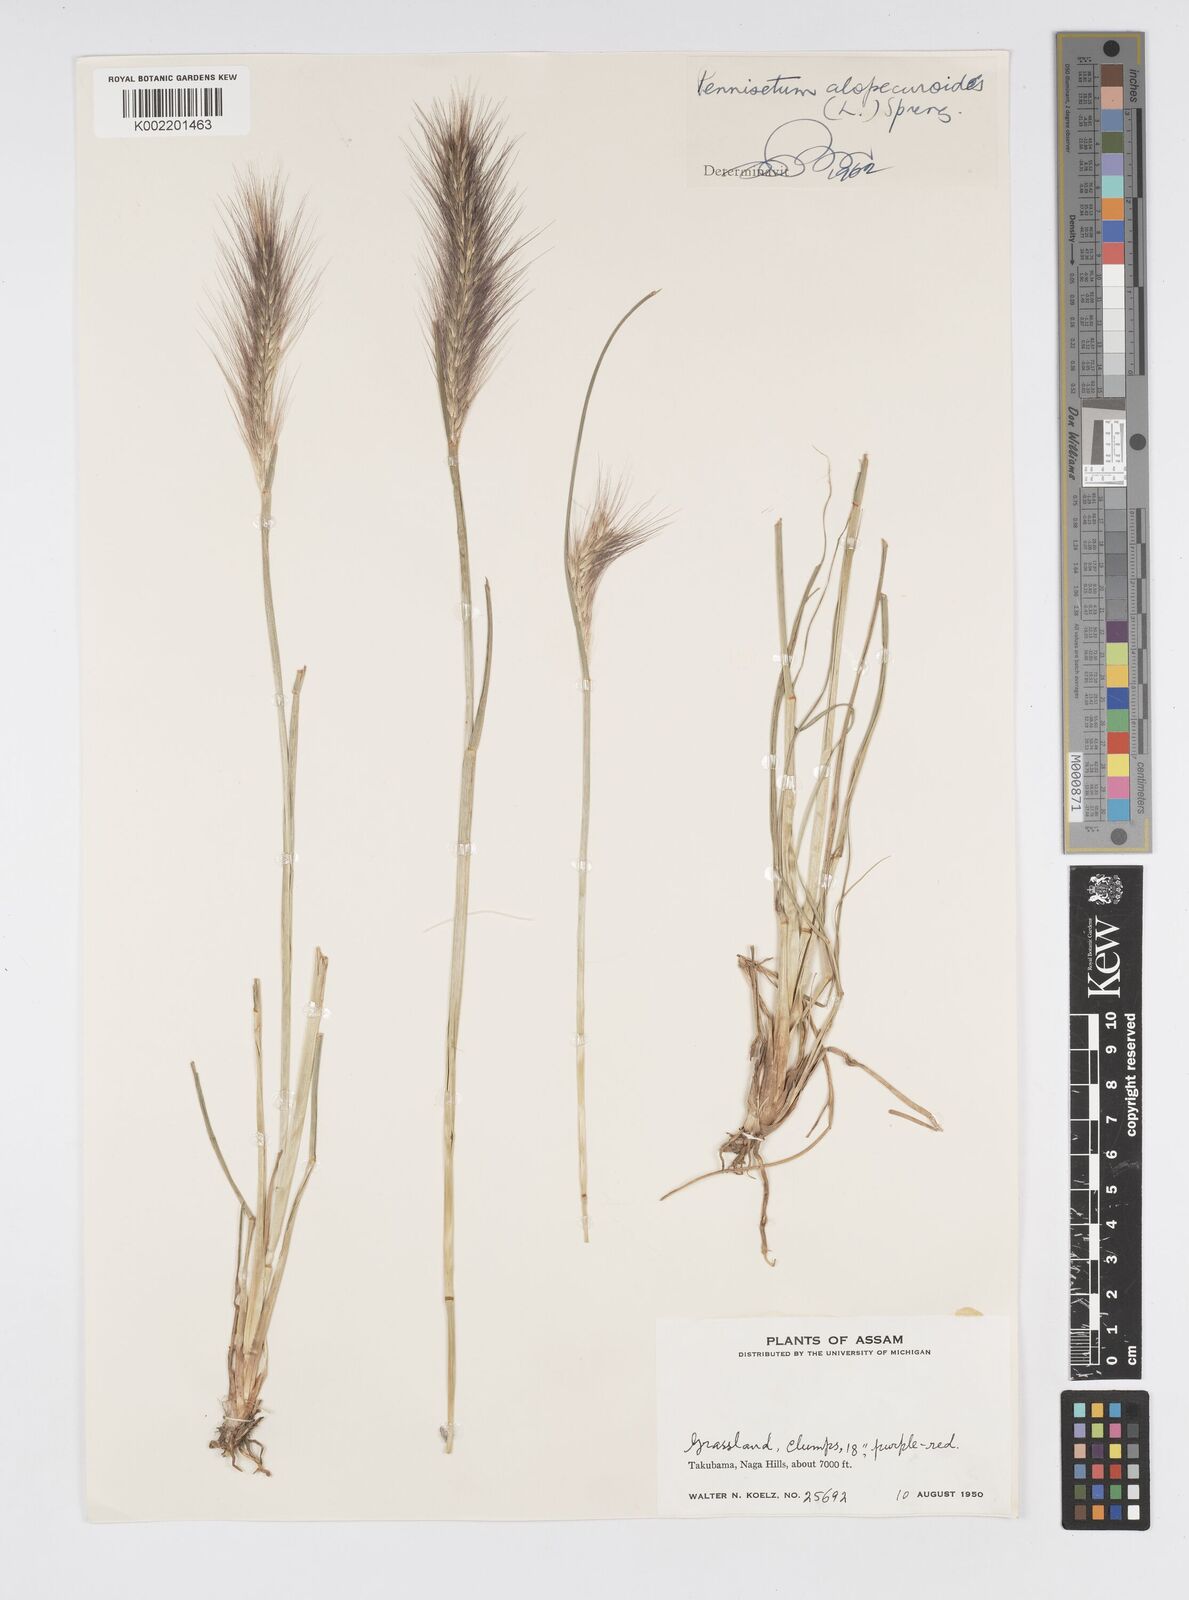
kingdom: Plantae
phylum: Tracheophyta
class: Liliopsida
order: Poales
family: Poaceae
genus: Cenchrus
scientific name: Cenchrus alopecuroides
